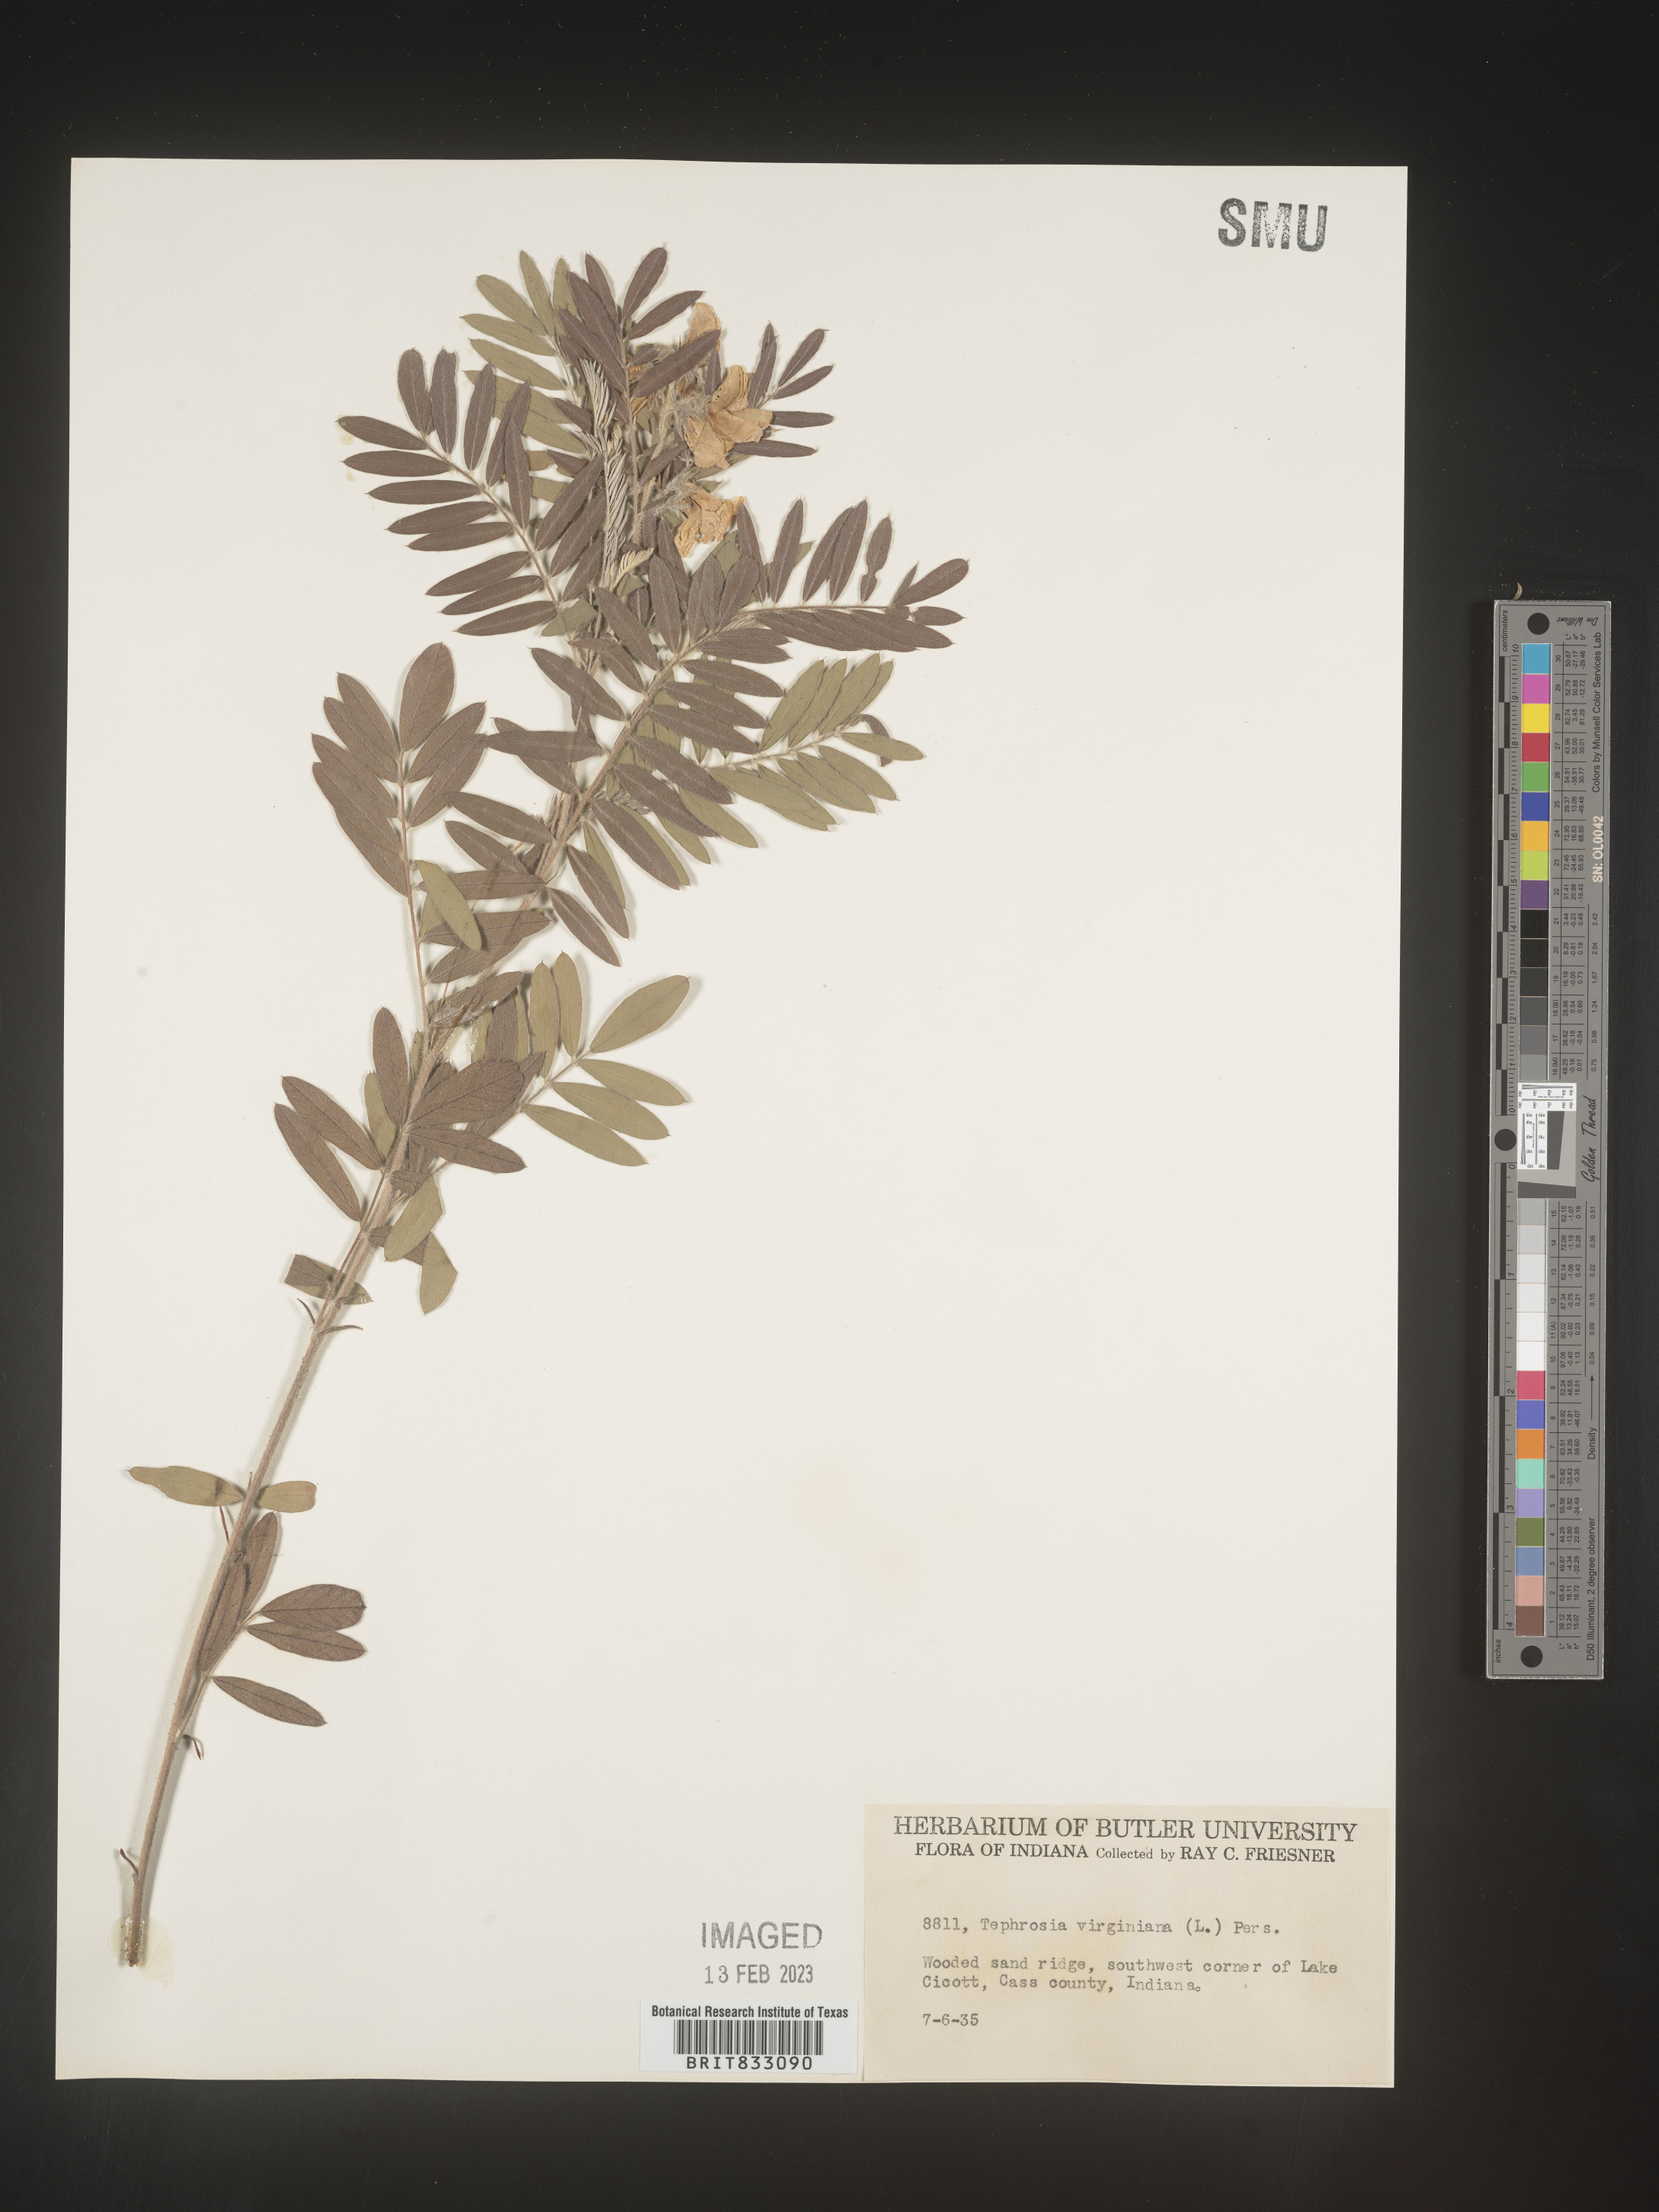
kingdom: Plantae
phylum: Tracheophyta
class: Magnoliopsida
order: Fabales
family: Fabaceae
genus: Tephrosia
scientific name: Tephrosia virginiana
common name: Rabbit-pea
